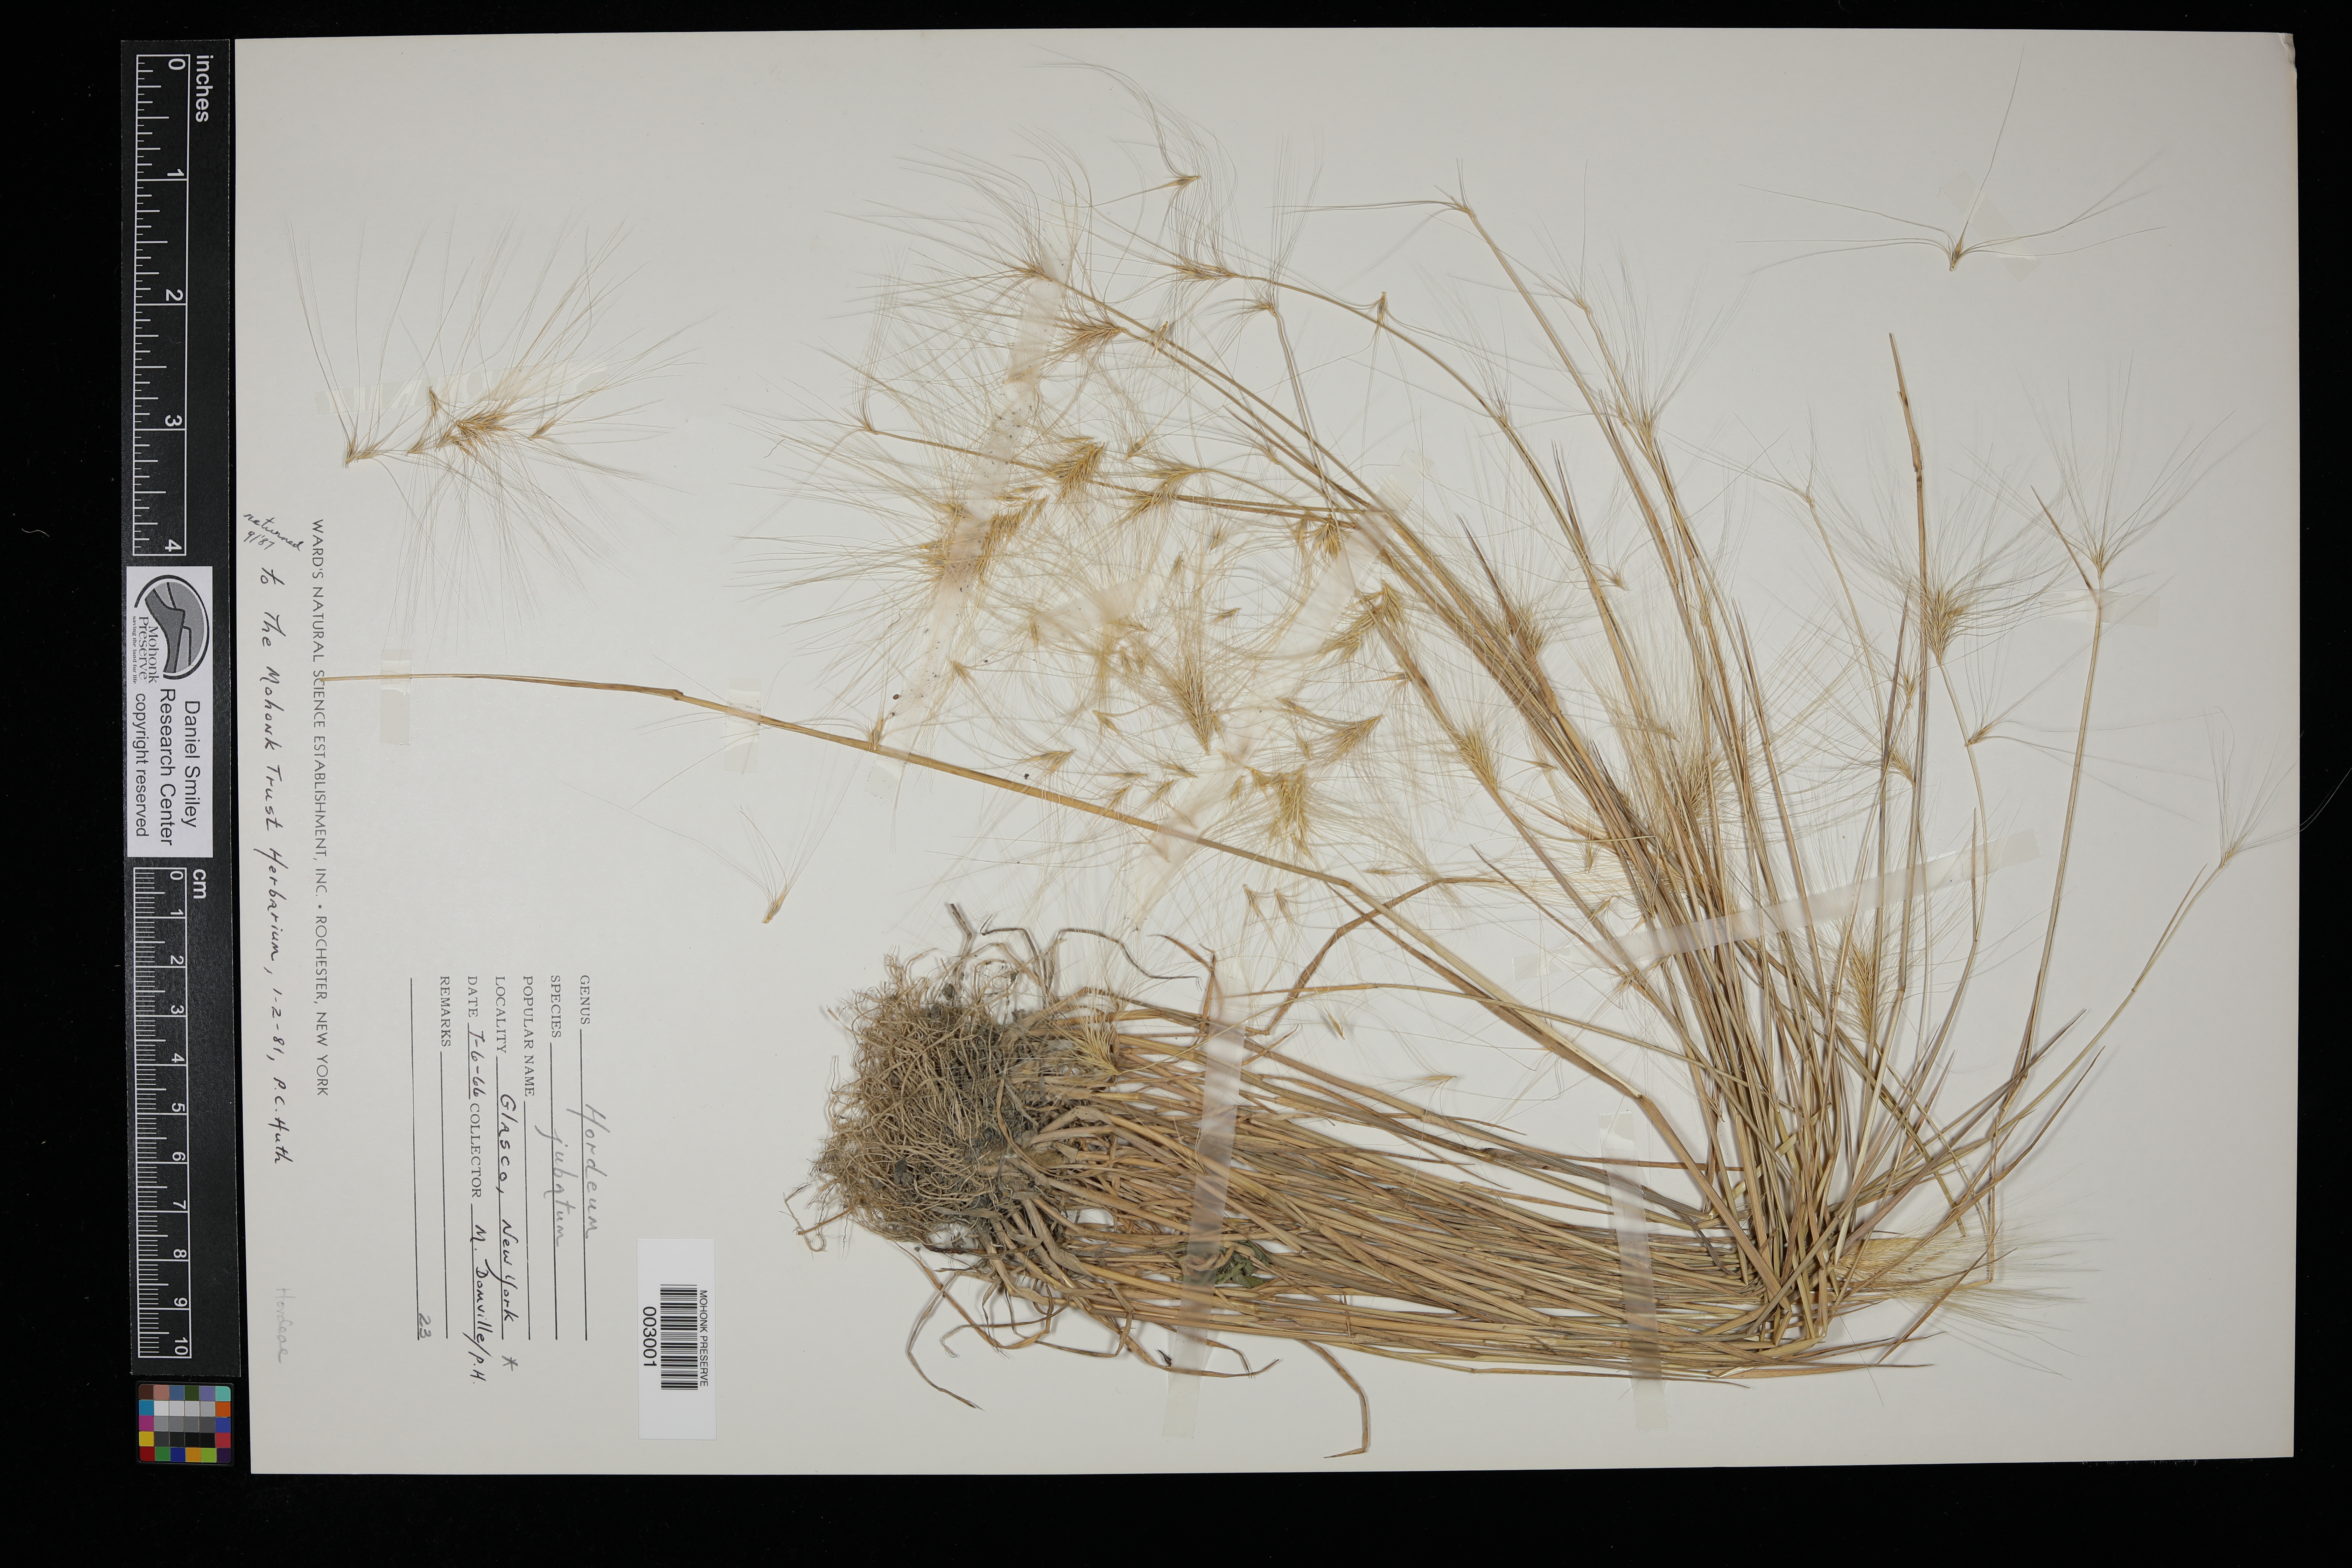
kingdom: Plantae
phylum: Tracheophyta
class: Liliopsida
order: Poales
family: Poaceae
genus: Hordeum
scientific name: Hordeum jubatum
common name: Foxtail barley
